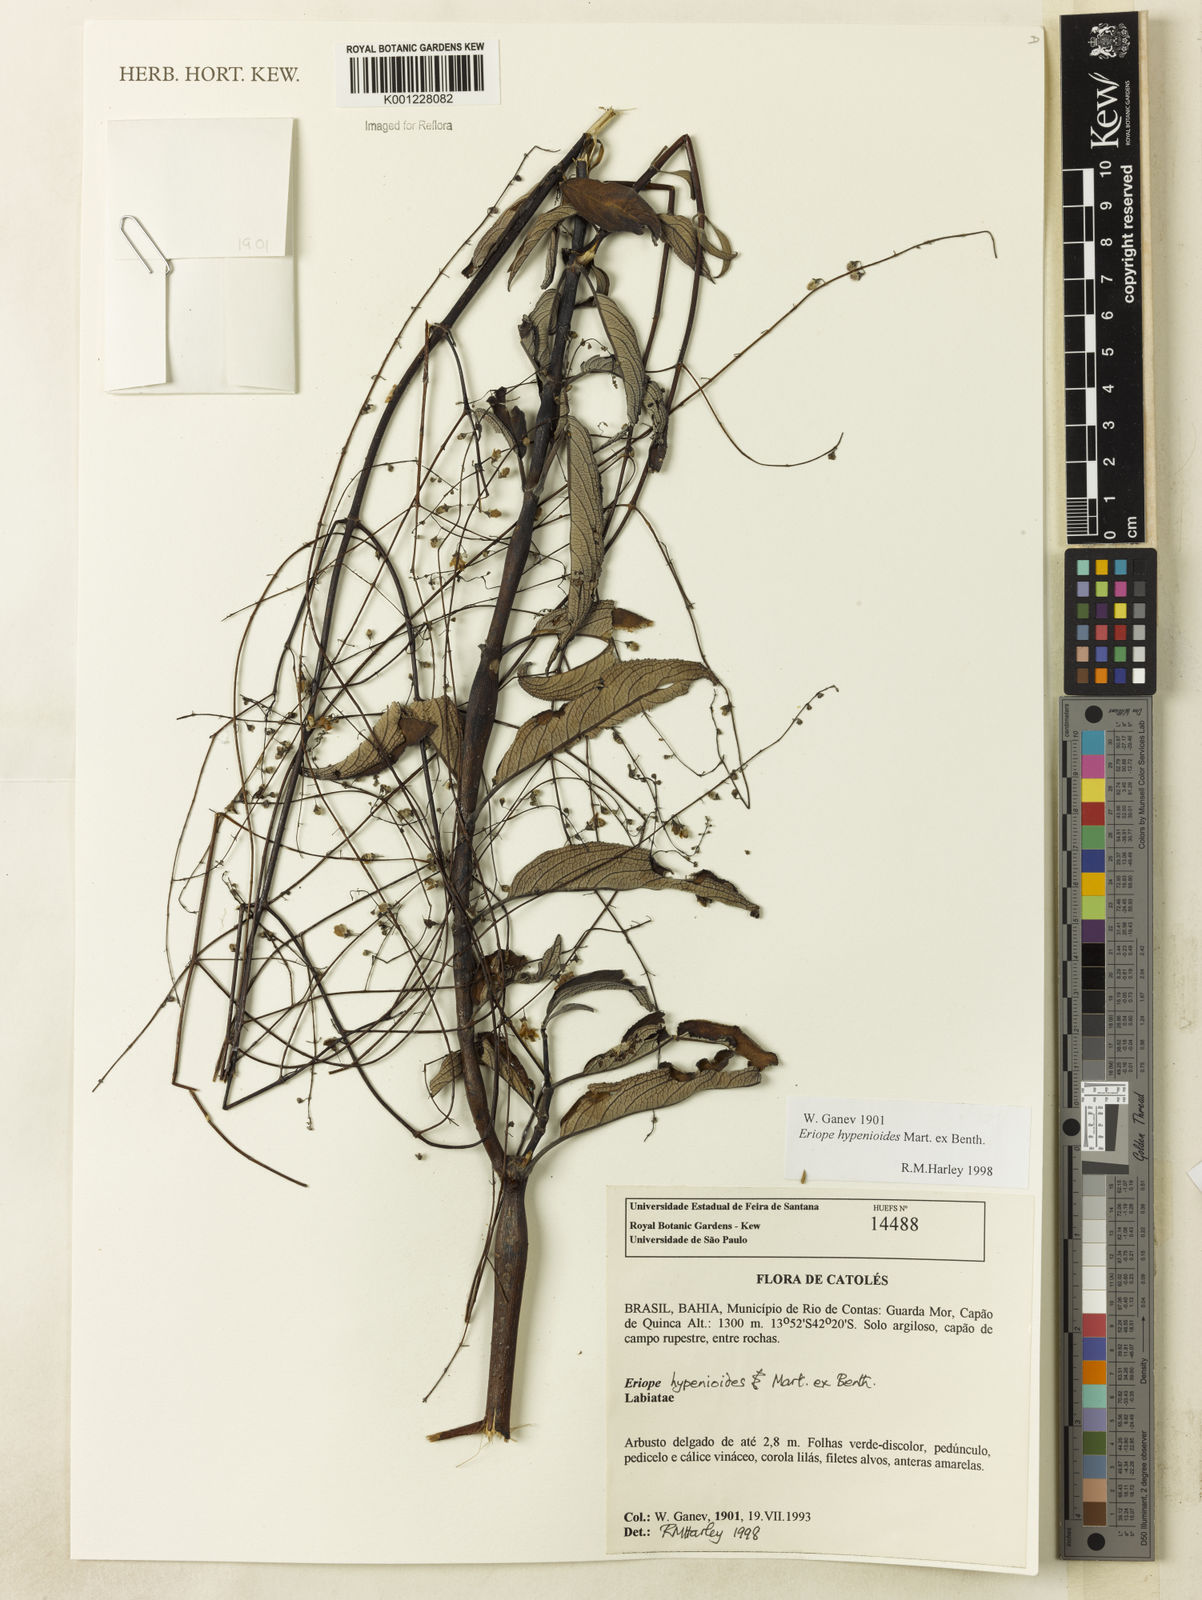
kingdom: Plantae
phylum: Tracheophyta
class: Magnoliopsida
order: Lamiales
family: Lamiaceae
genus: Eriope
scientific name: Eriope hypenioides
